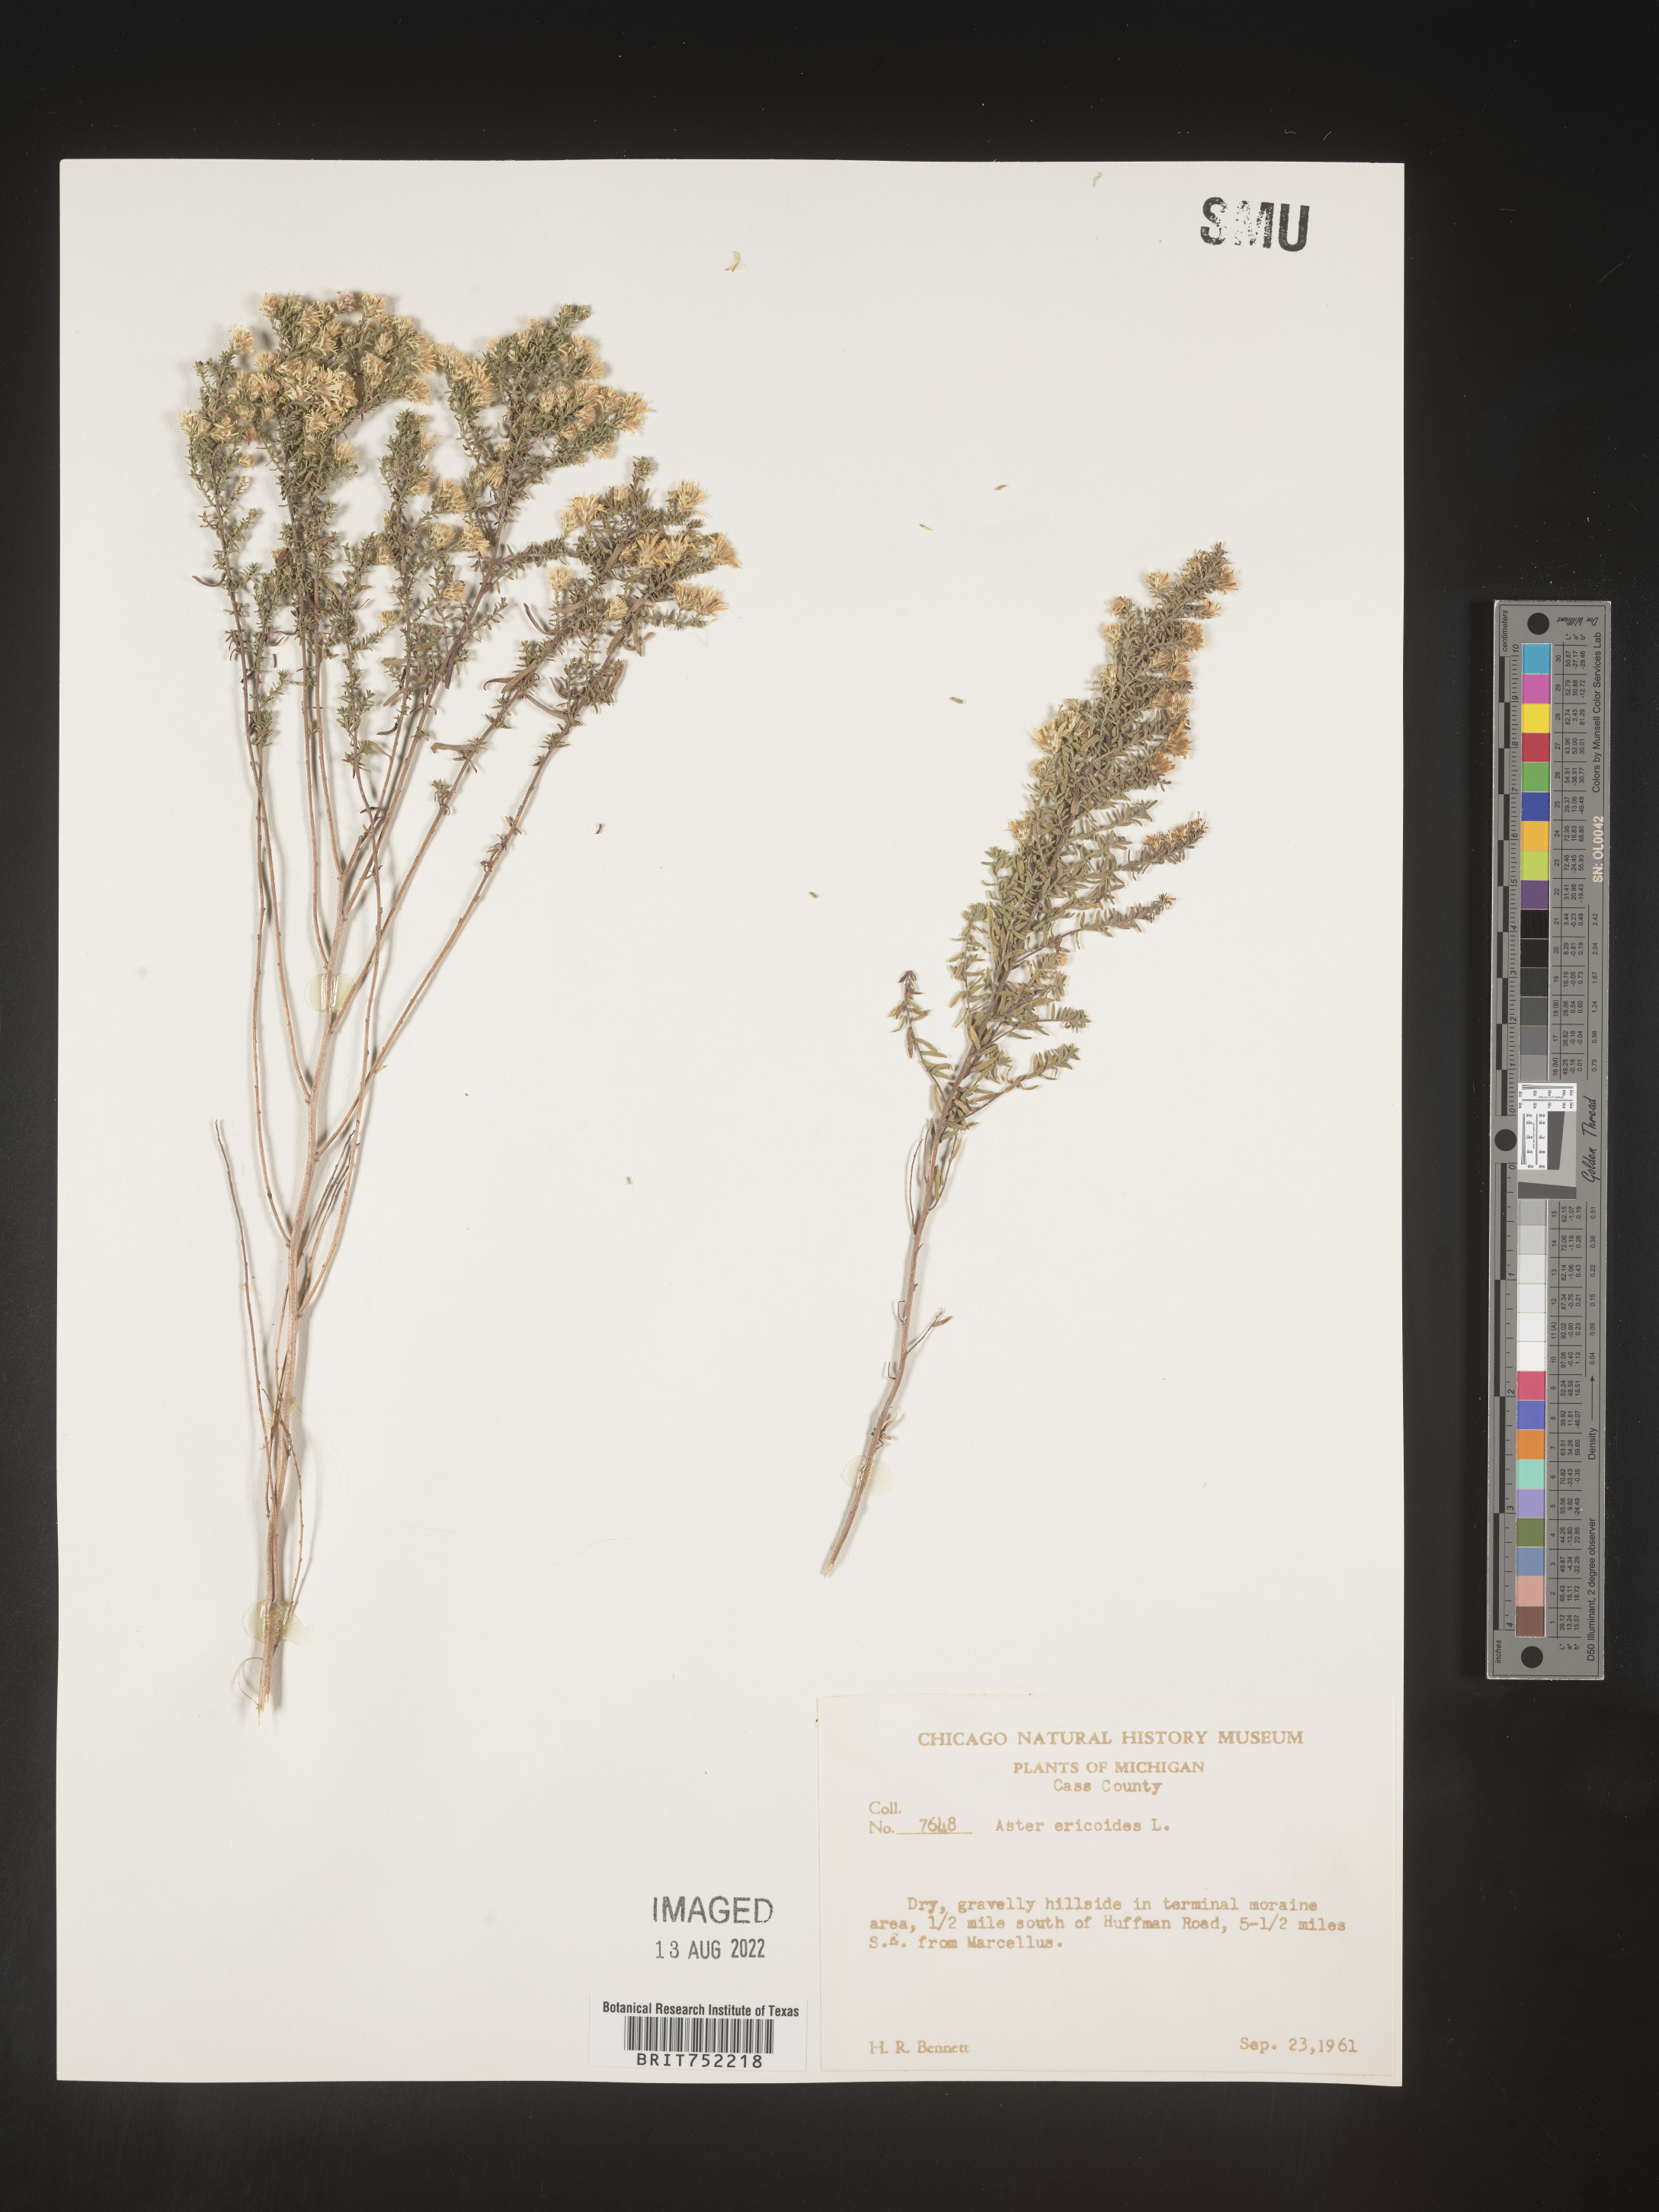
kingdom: Plantae
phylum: Tracheophyta
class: Magnoliopsida
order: Asterales
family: Asteraceae
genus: Symphyotrichum
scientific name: Symphyotrichum ericoides
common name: Heath aster
